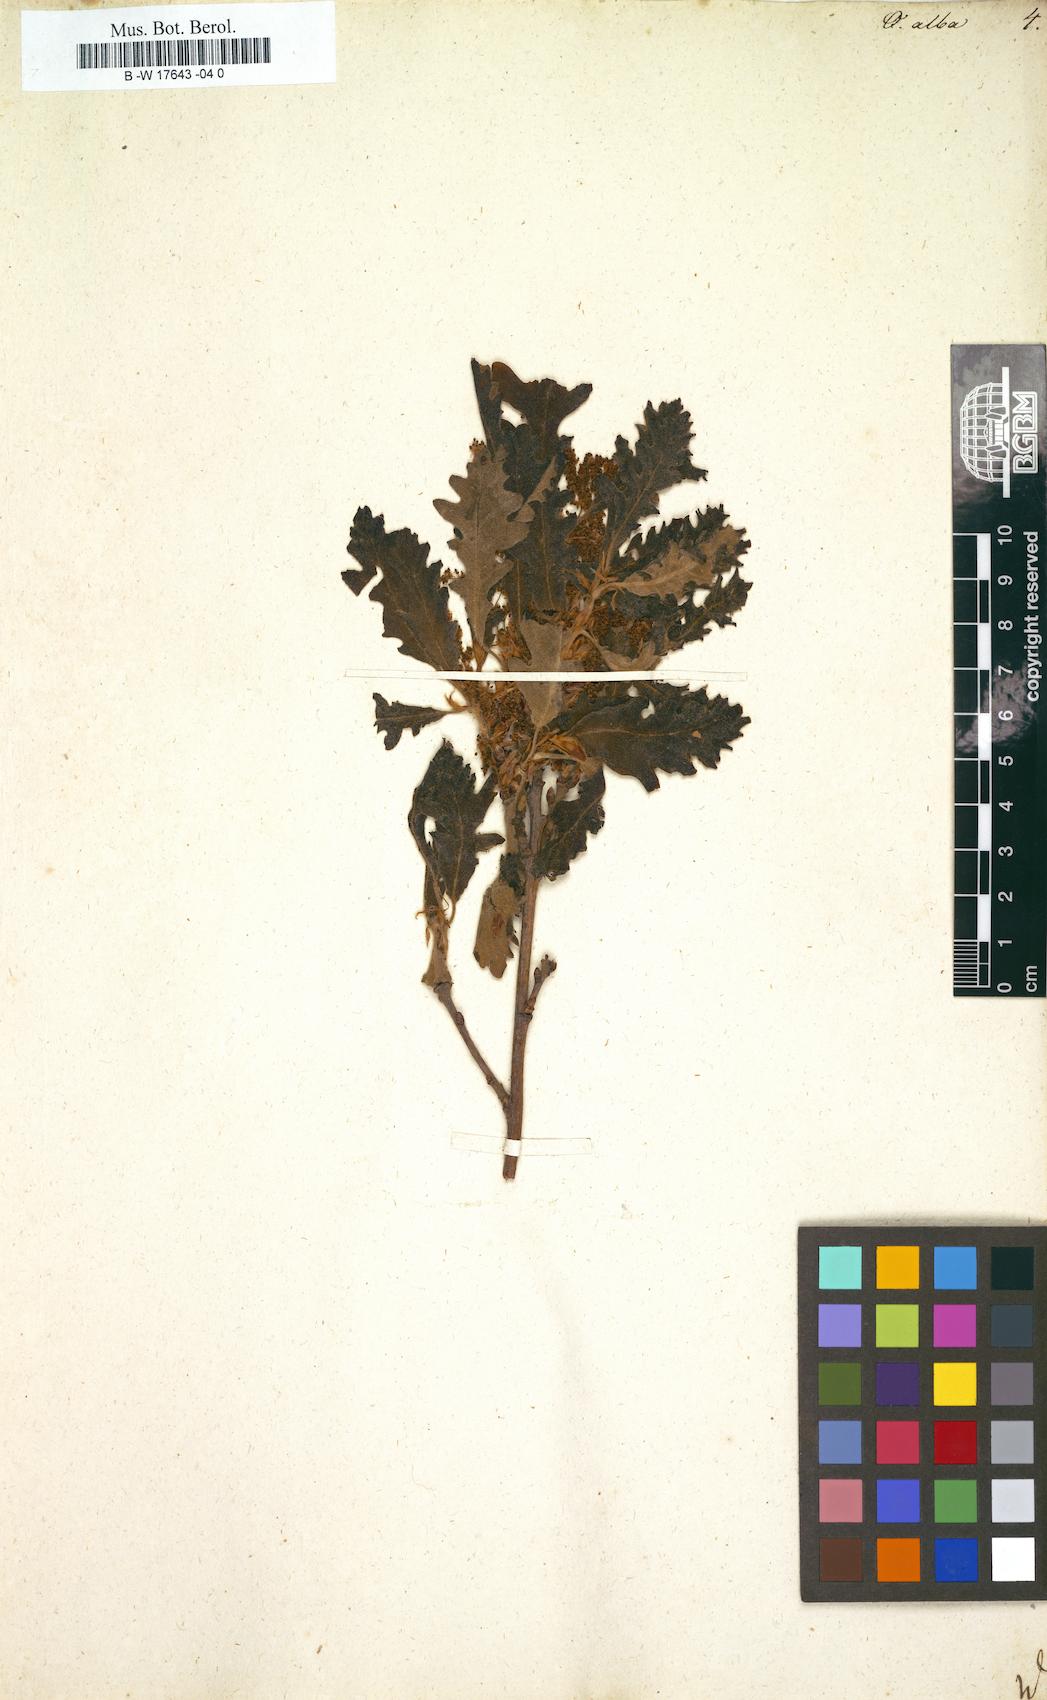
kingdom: Plantae
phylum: Tracheophyta
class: Magnoliopsida
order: Fagales
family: Fagaceae
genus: Quercus
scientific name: Quercus alba
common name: White oak
